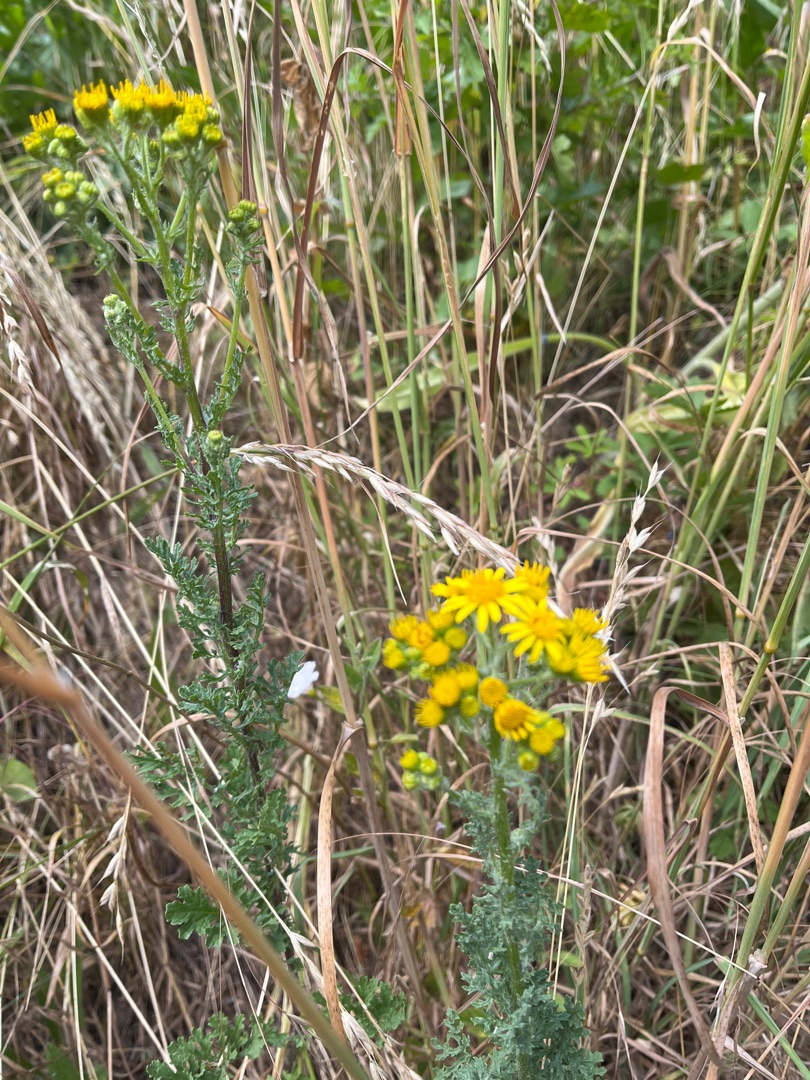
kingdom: Plantae
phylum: Tracheophyta
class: Magnoliopsida
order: Asterales
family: Asteraceae
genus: Jacobaea
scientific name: Jacobaea vulgaris
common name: Eng-brandbæger
